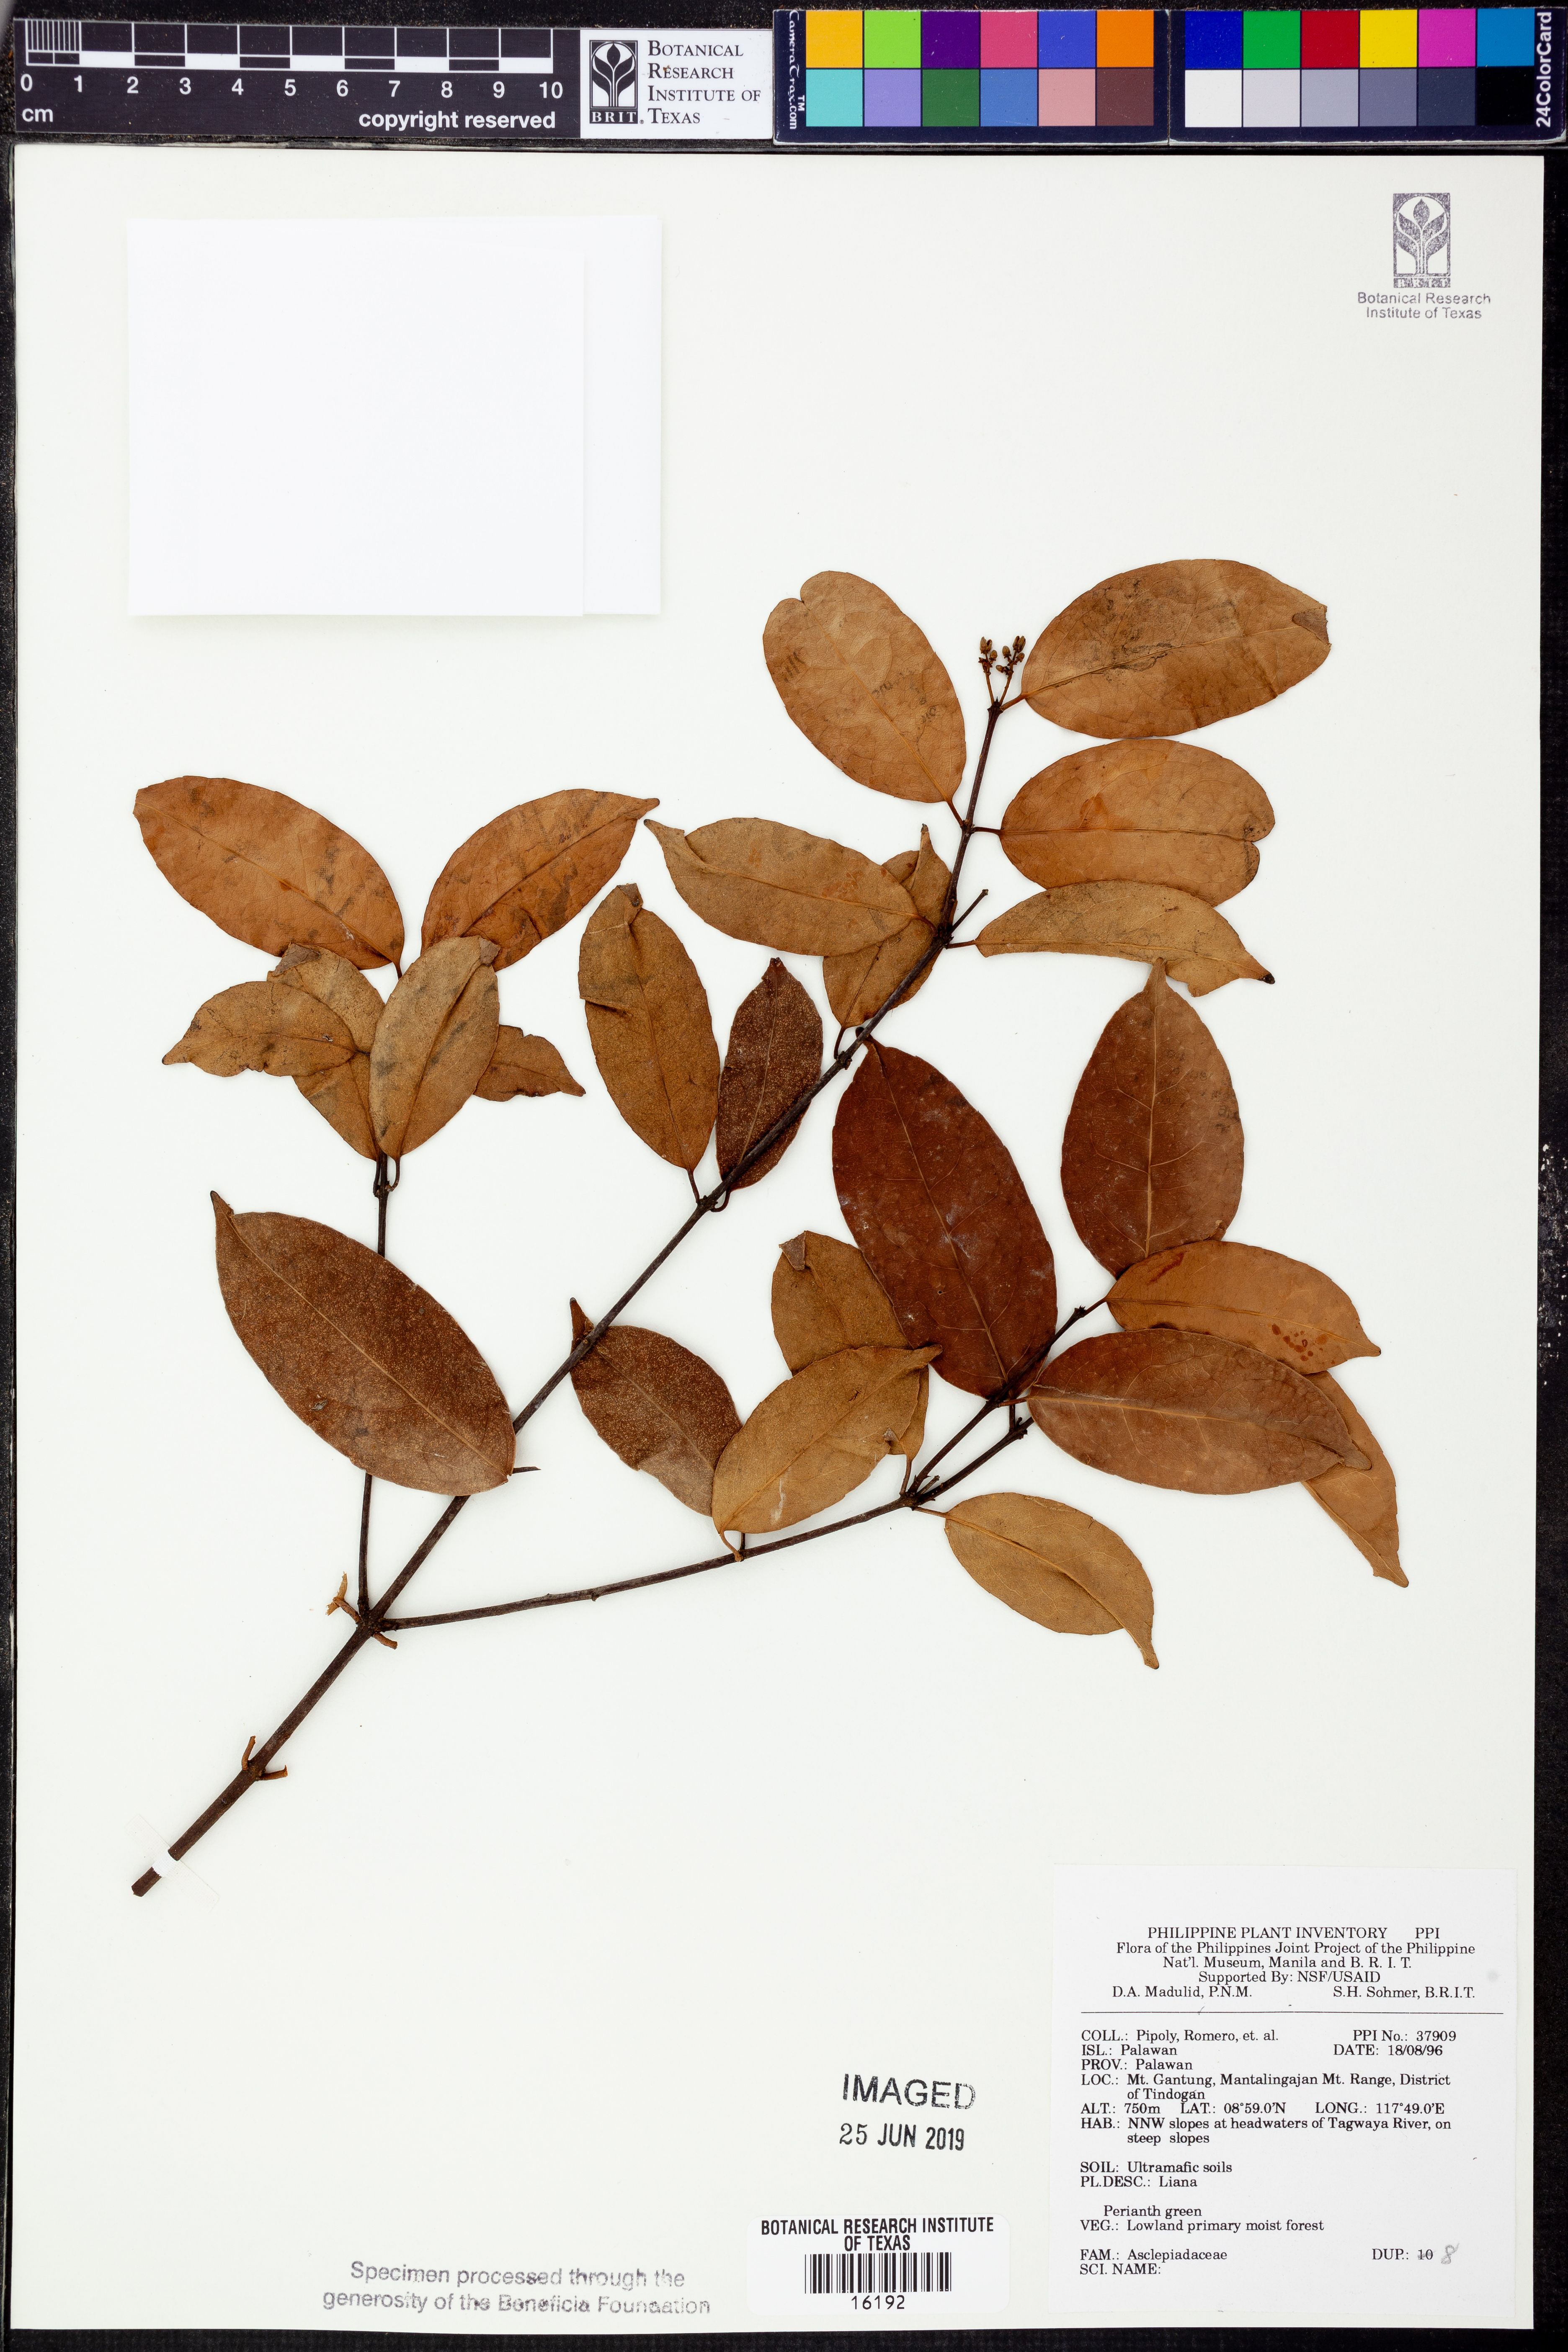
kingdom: Plantae
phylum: Tracheophyta
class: Magnoliopsida
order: Gentianales
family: Apocynaceae
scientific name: Apocynaceae
